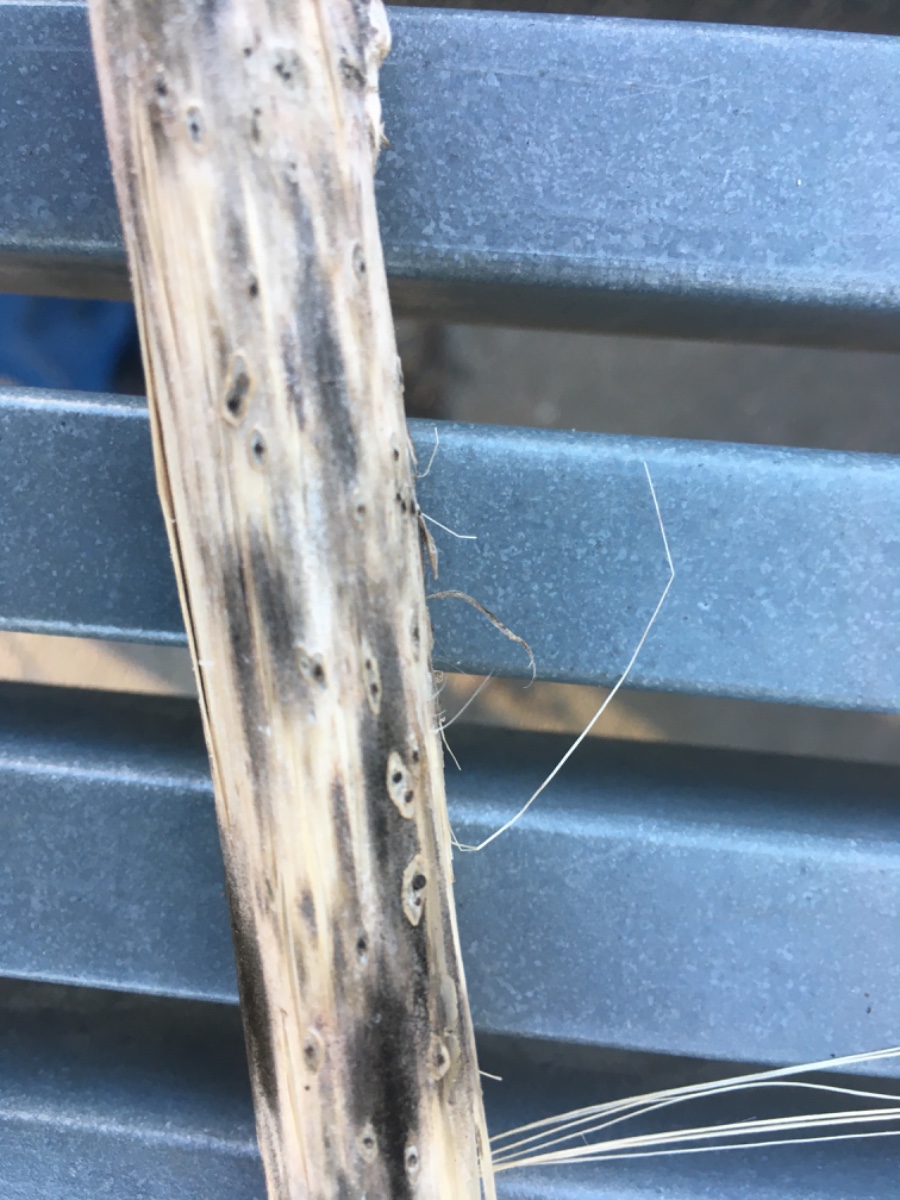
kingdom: Fungi
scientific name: Fungi
